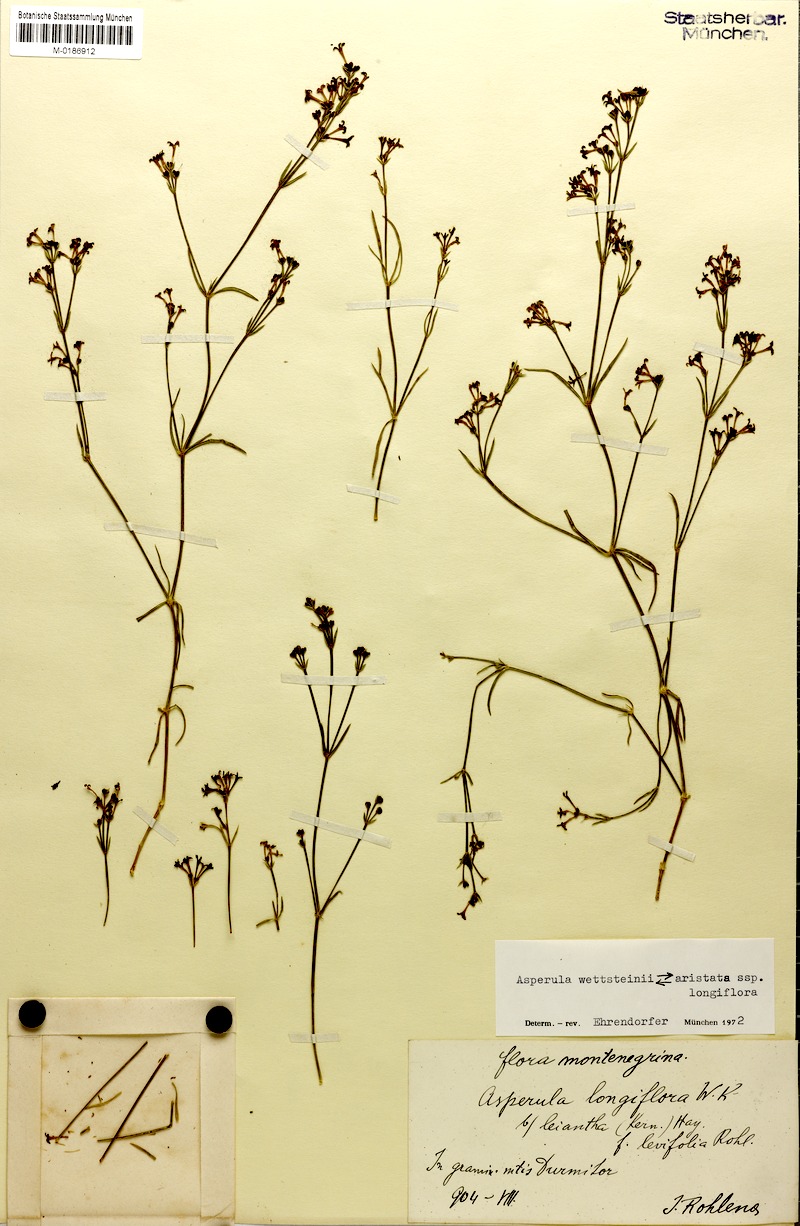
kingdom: Plantae
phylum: Tracheophyta
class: Magnoliopsida
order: Gentianales
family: Rubiaceae
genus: Cynanchica
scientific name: Cynanchica wettsteinii
